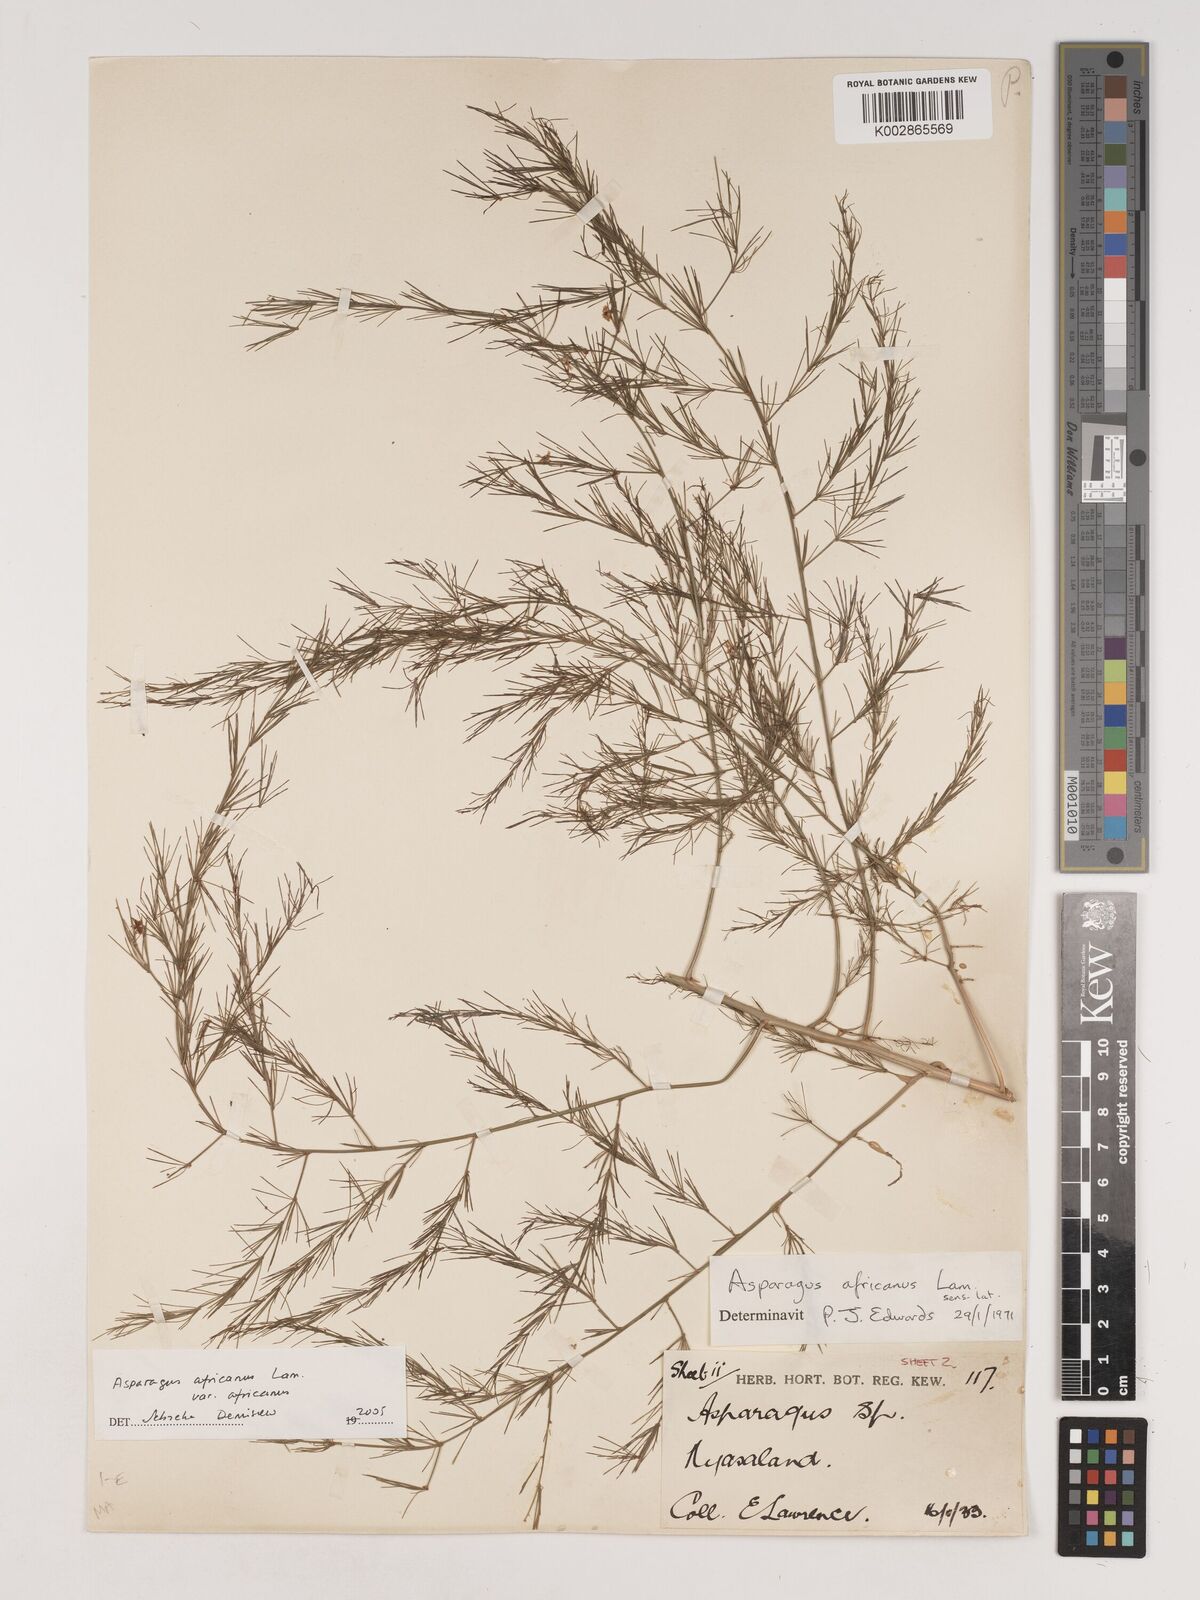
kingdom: Plantae
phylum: Tracheophyta
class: Liliopsida
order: Asparagales
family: Asparagaceae
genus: Asparagus
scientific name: Asparagus africanus
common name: Asparagus-fern
